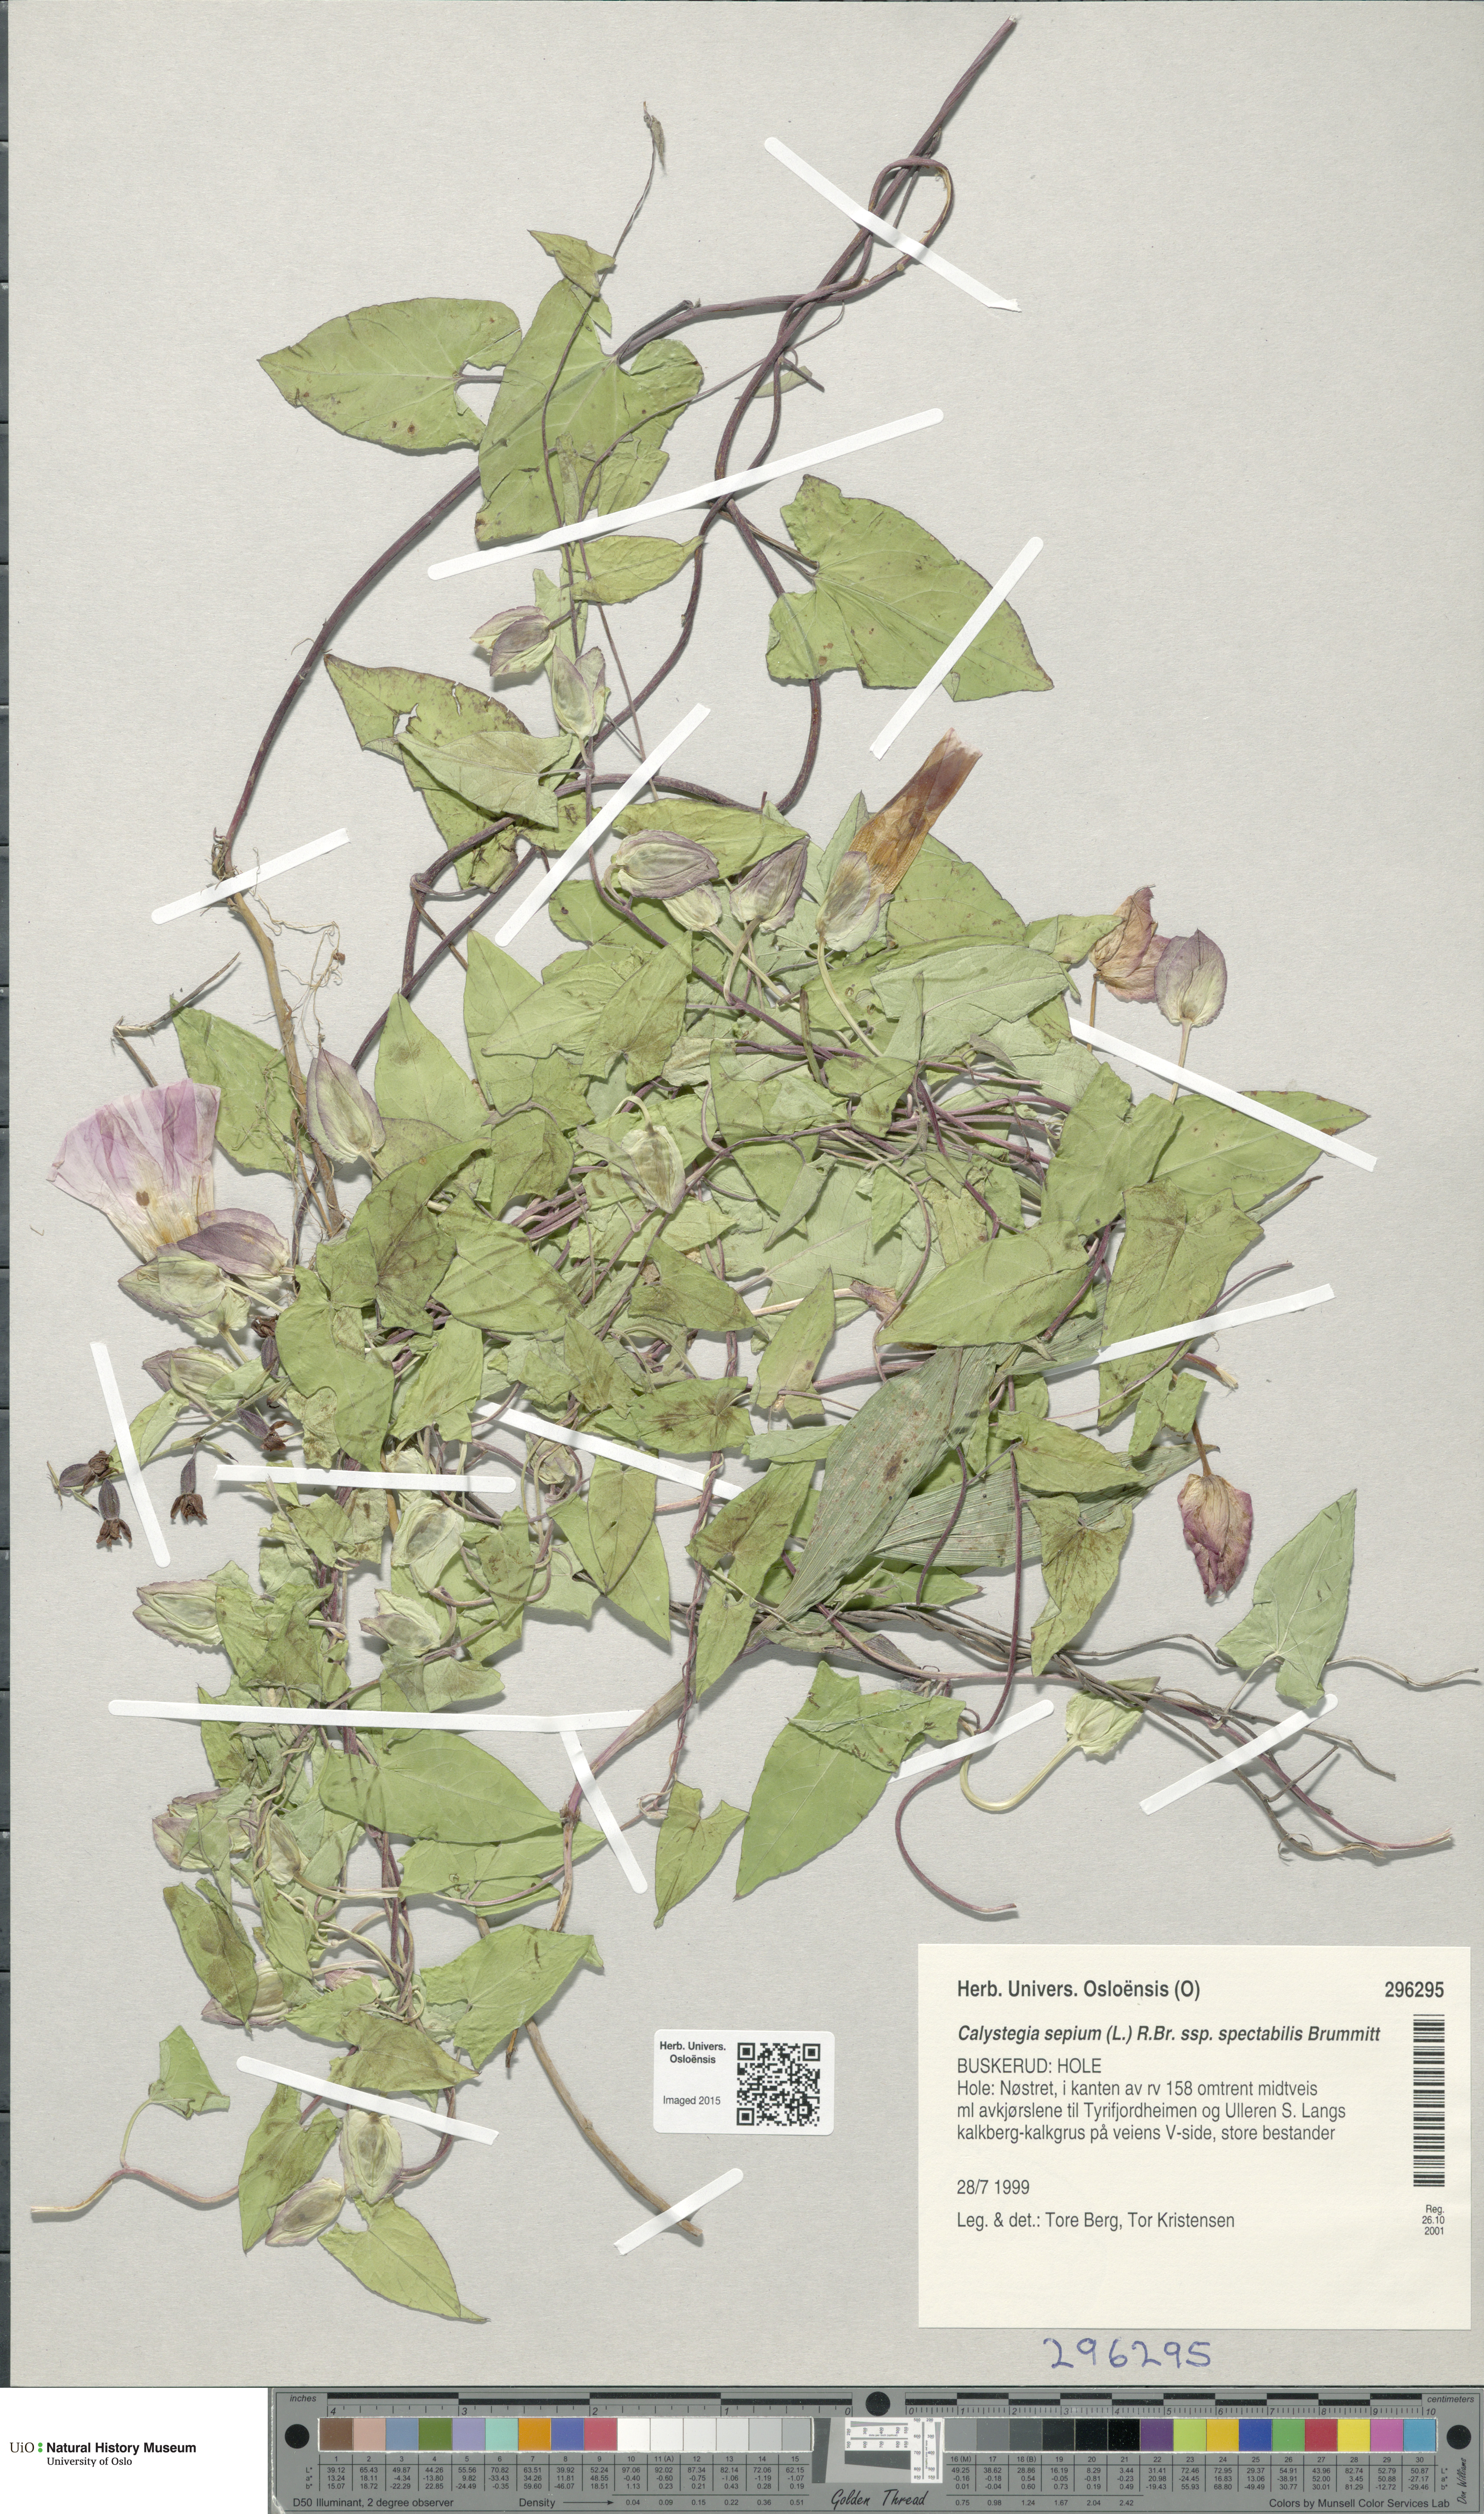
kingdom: Plantae
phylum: Tracheophyta
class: Magnoliopsida
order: Solanales
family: Convolvulaceae
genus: Calystegia
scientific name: Calystegia pulchra
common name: Hairy bindweed
